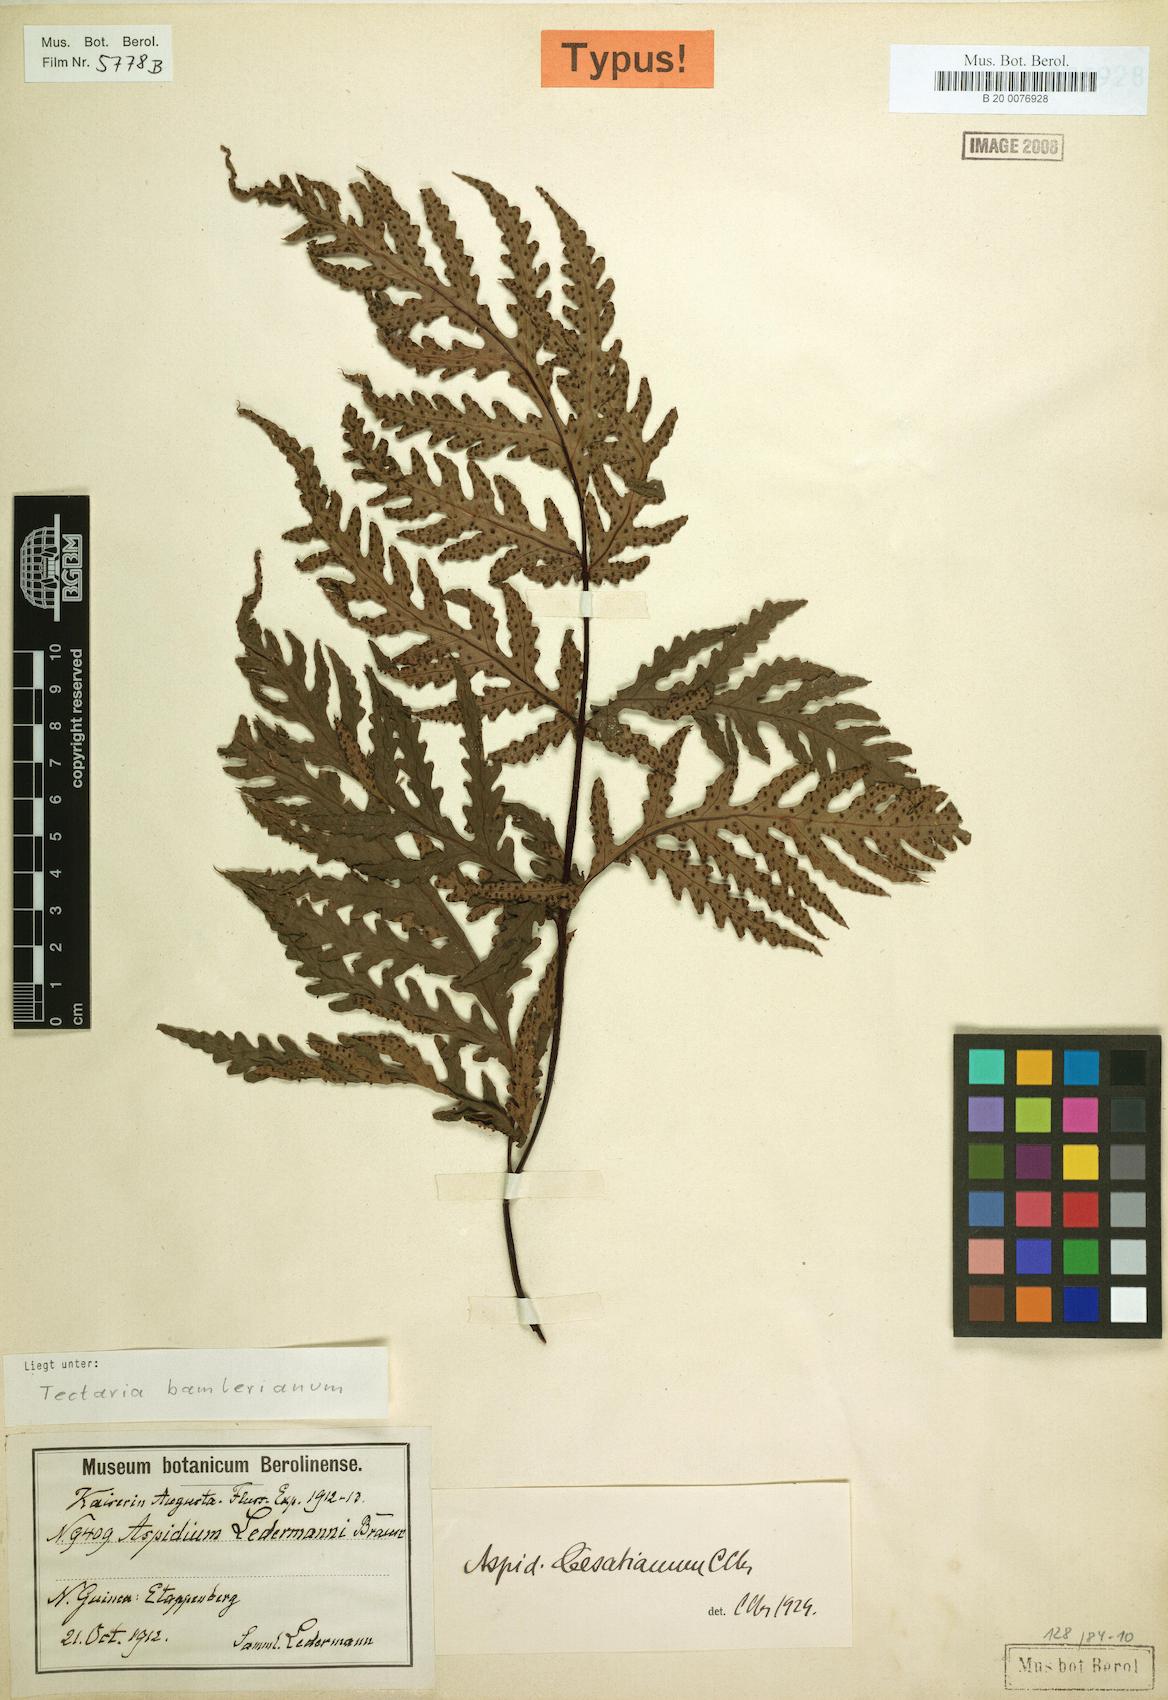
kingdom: Plantae
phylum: Tracheophyta
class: Polypodiopsida
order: Polypodiales
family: Tectariaceae
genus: Tectaria
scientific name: Tectaria bamleriana
